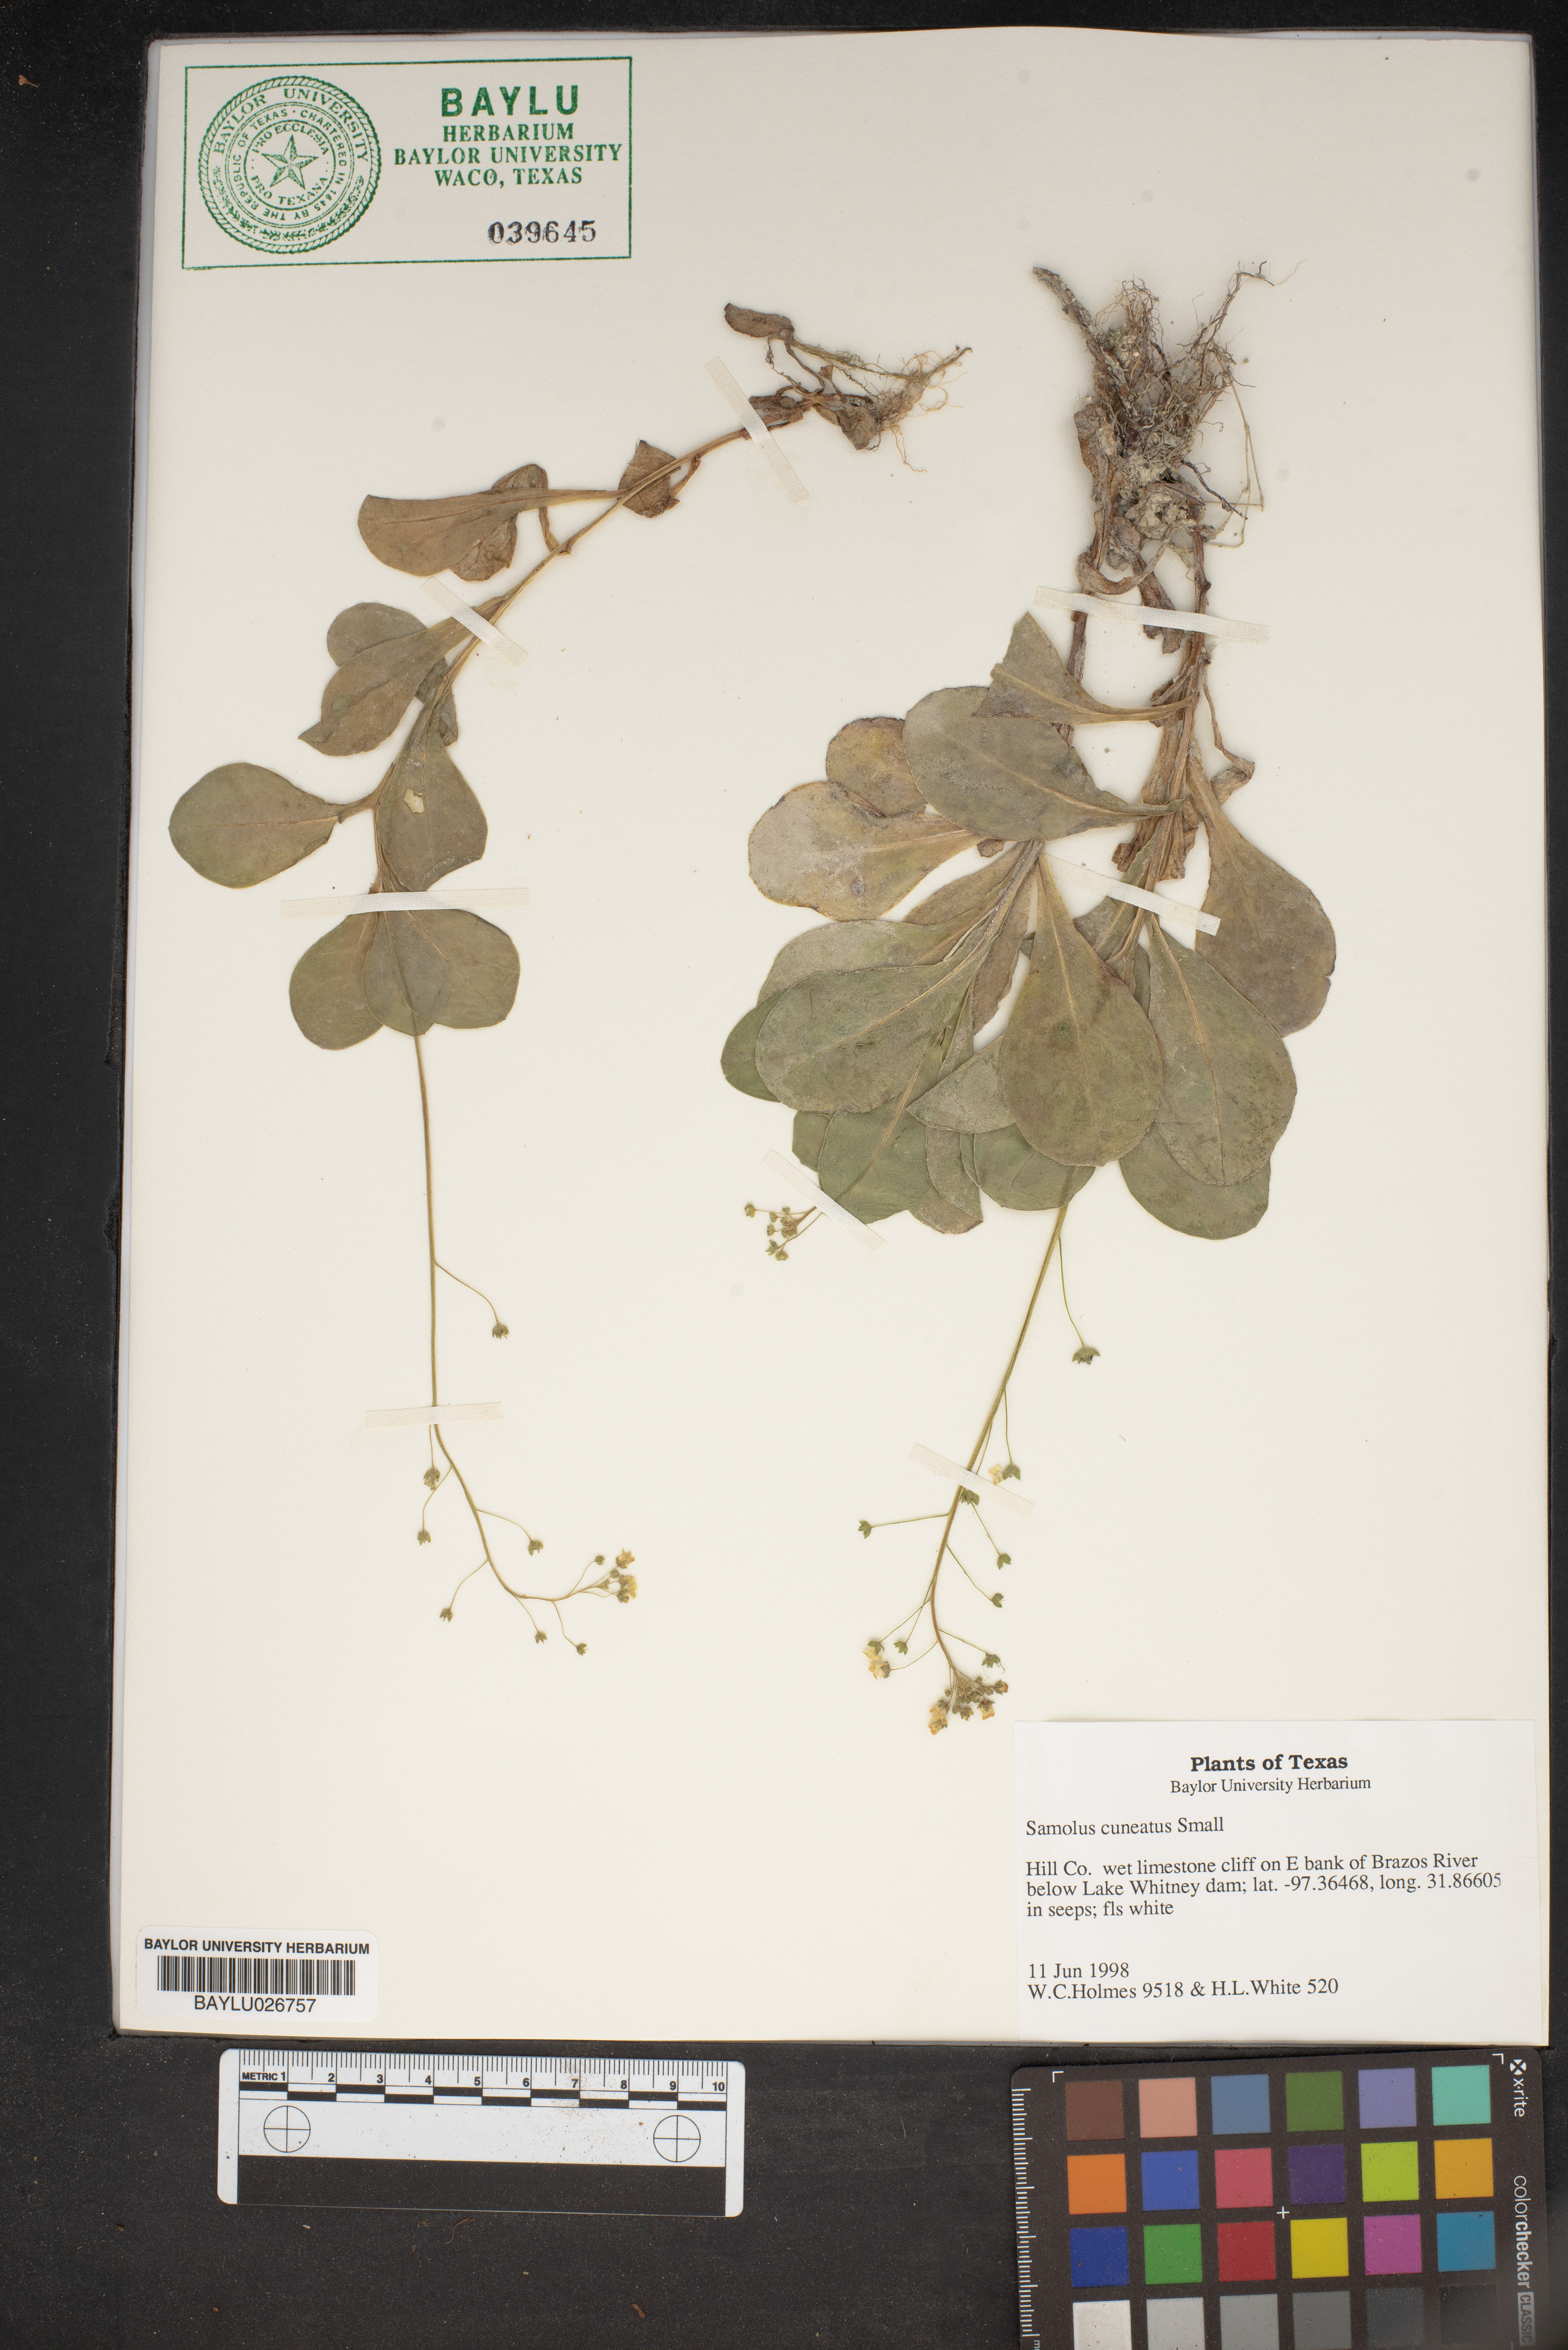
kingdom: Plantae
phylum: Tracheophyta
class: Magnoliopsida
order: Ericales
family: Primulaceae
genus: Samolus
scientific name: Samolus ebracteatus
